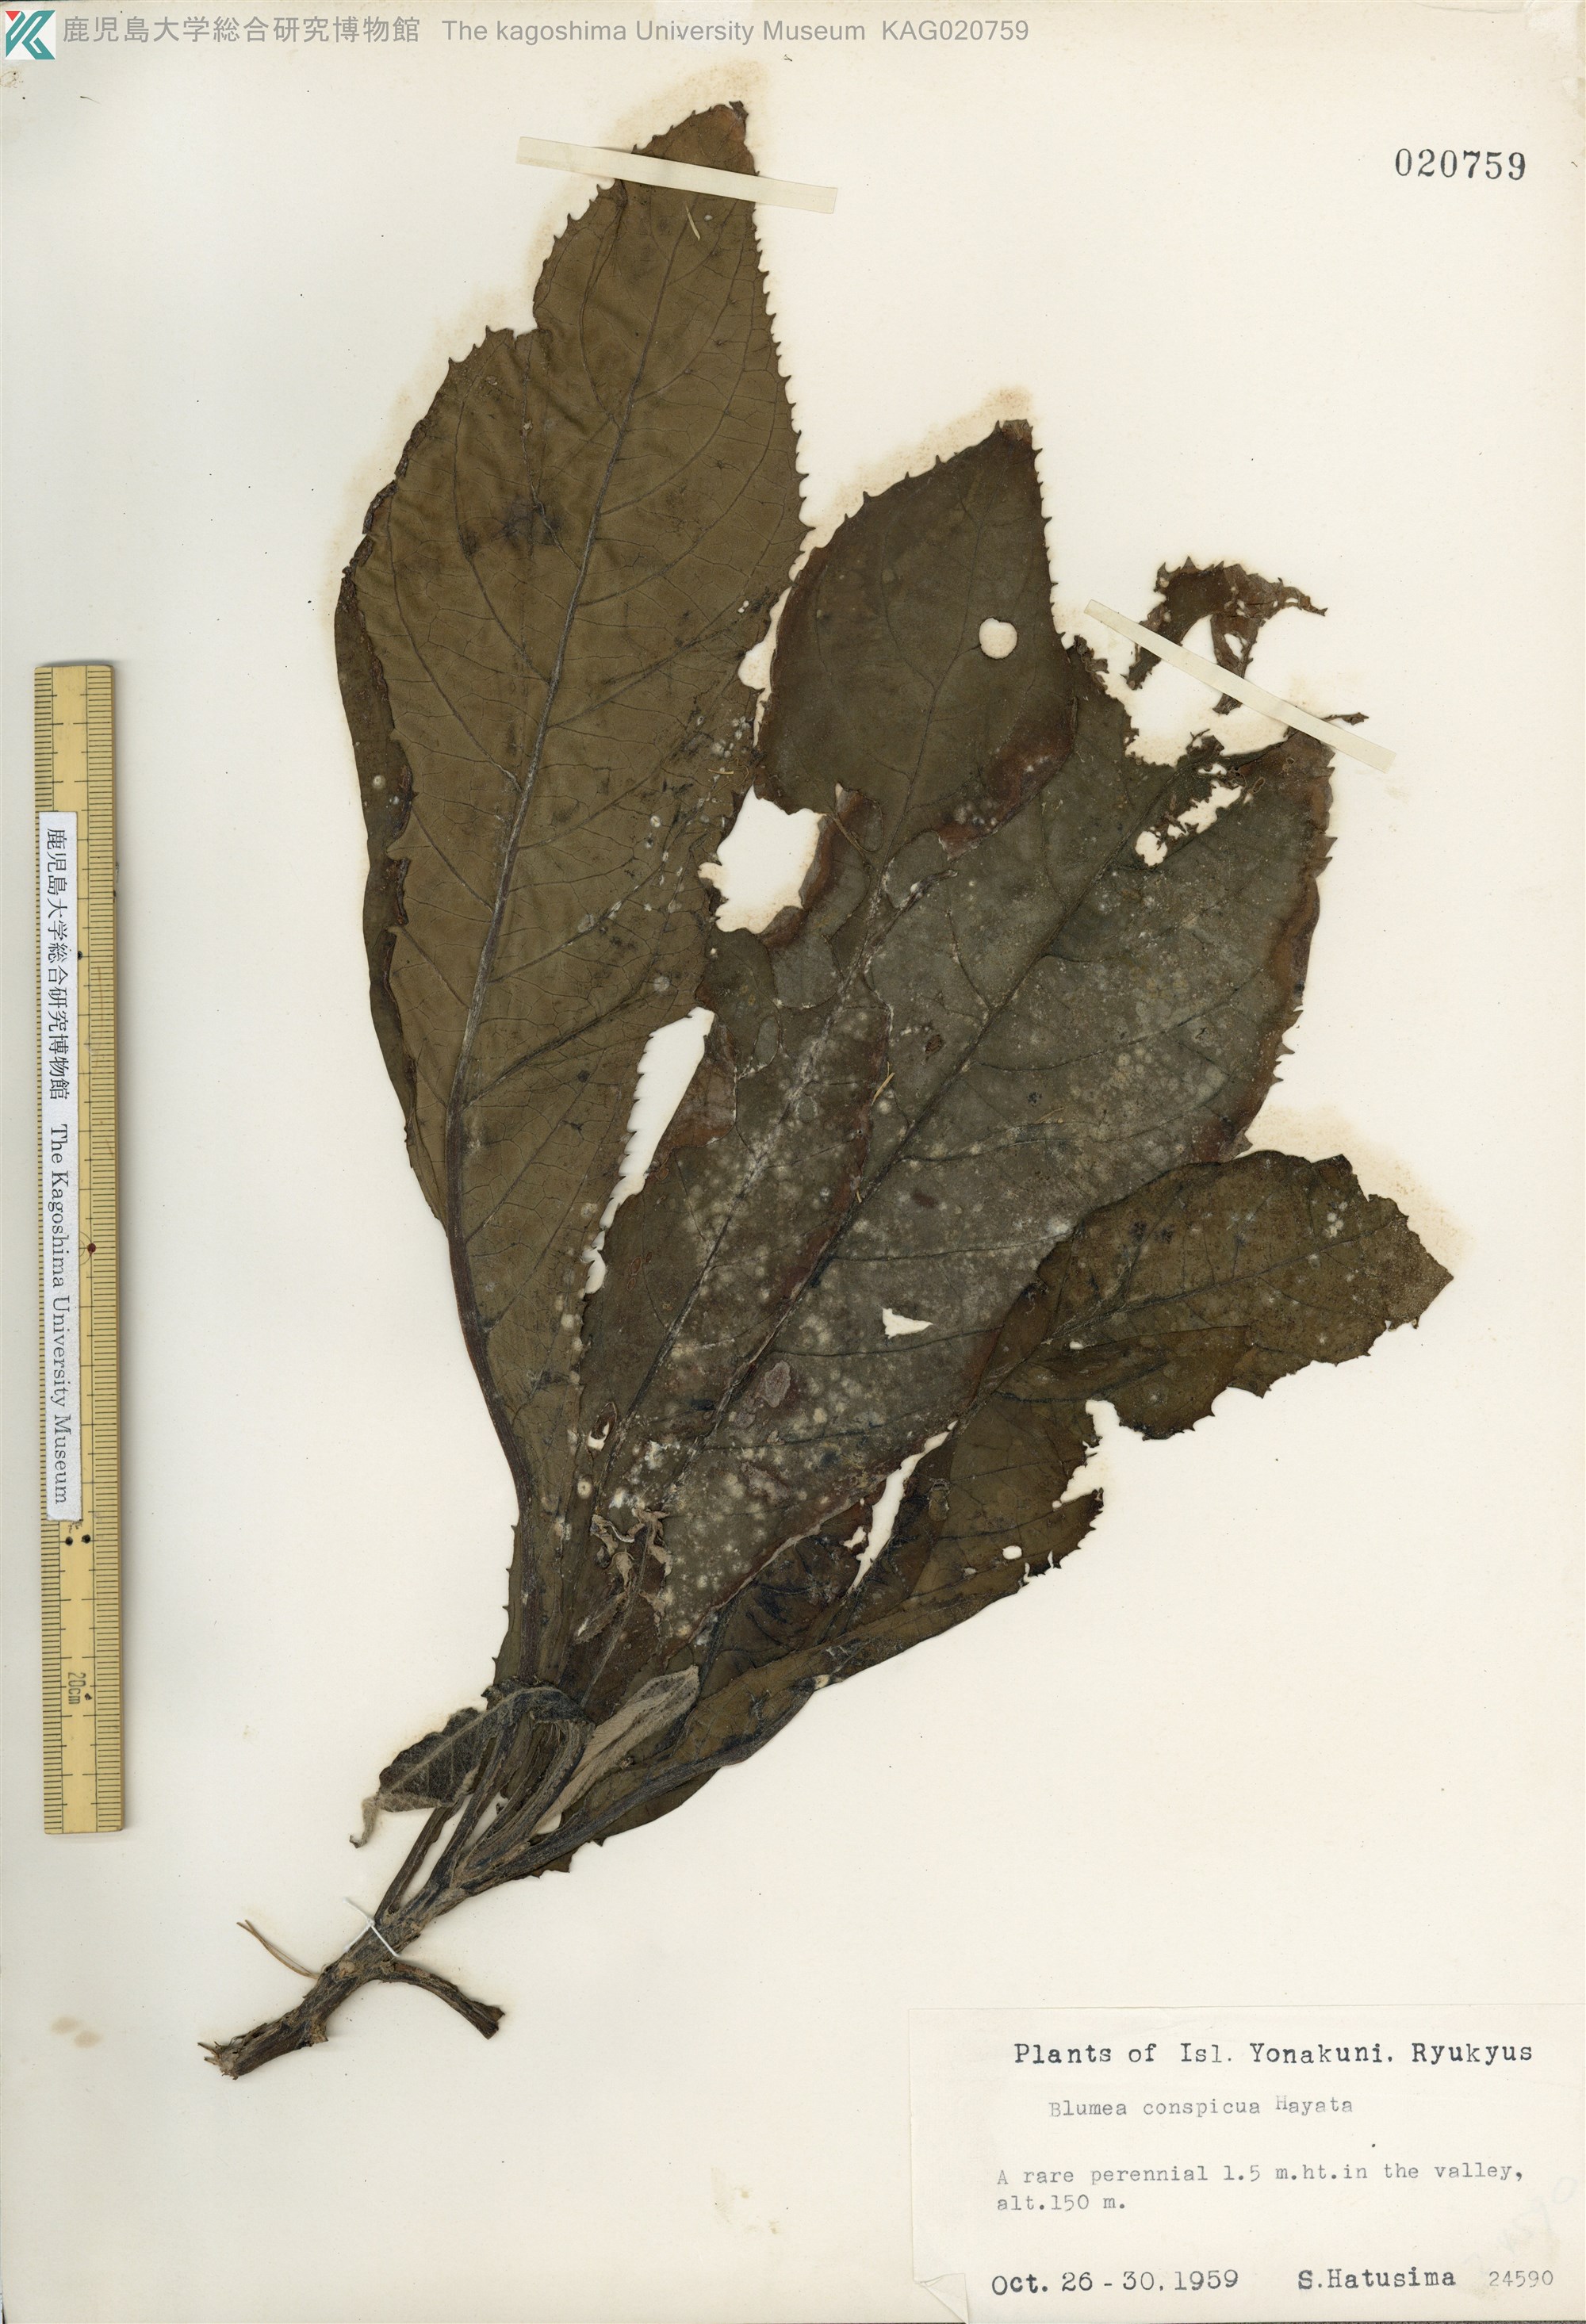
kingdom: Plantae
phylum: Tracheophyta
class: Magnoliopsida
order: Asterales
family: Asteraceae
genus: Blumea
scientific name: Blumea conspicua
